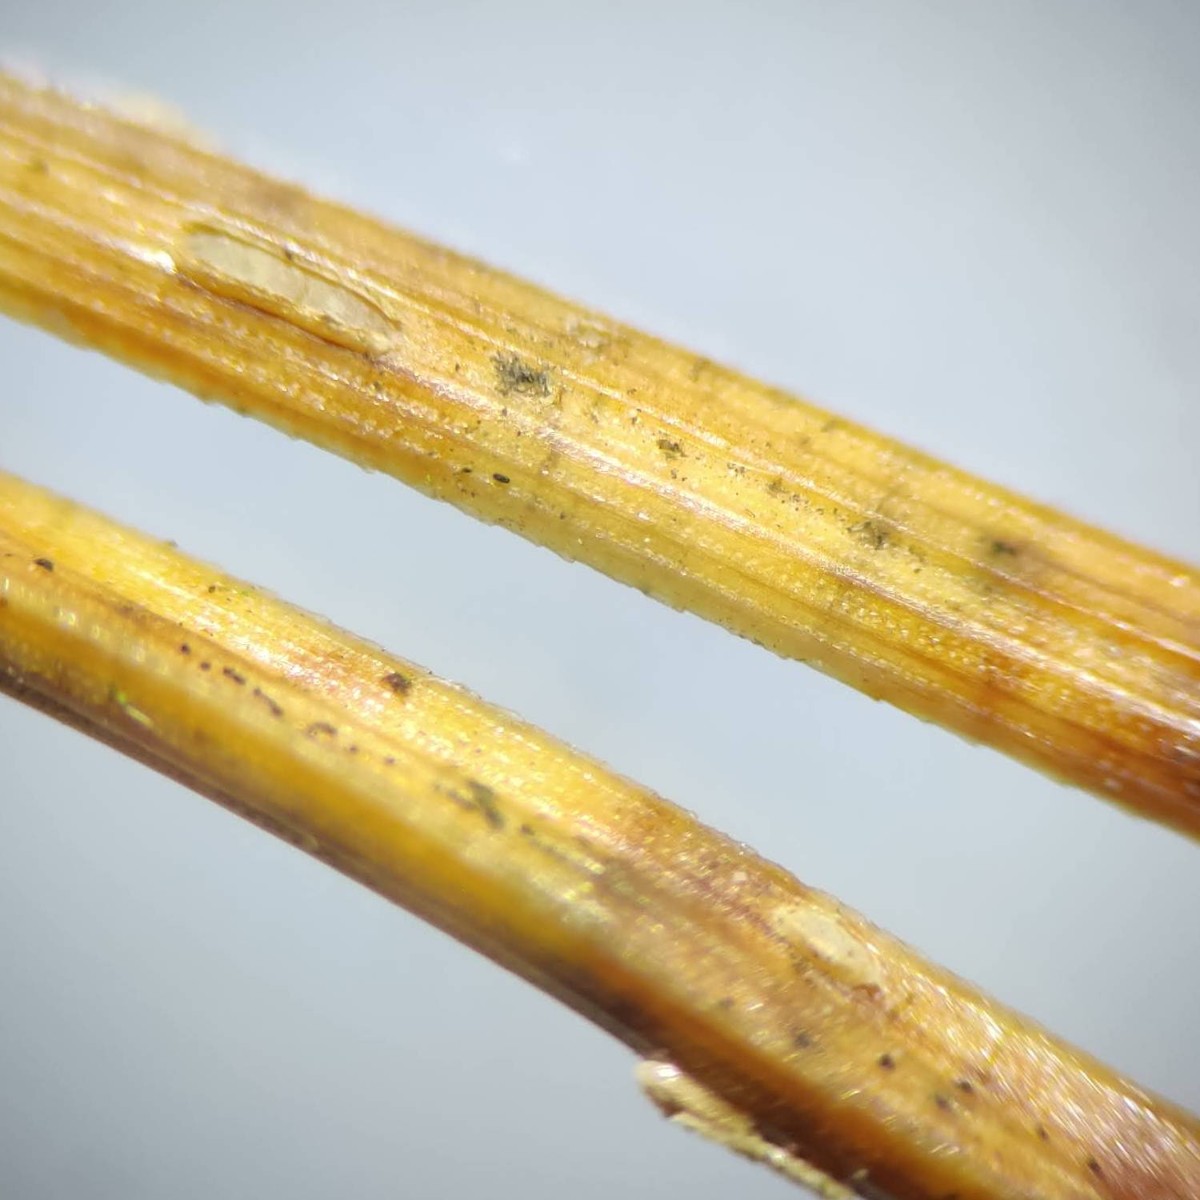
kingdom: Fungi
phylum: Ascomycota
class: Leotiomycetes
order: Chaetomellales
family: Marthamycetaceae
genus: Cyclaneusma
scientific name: Cyclaneusma minus
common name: tofliget nåleskive
